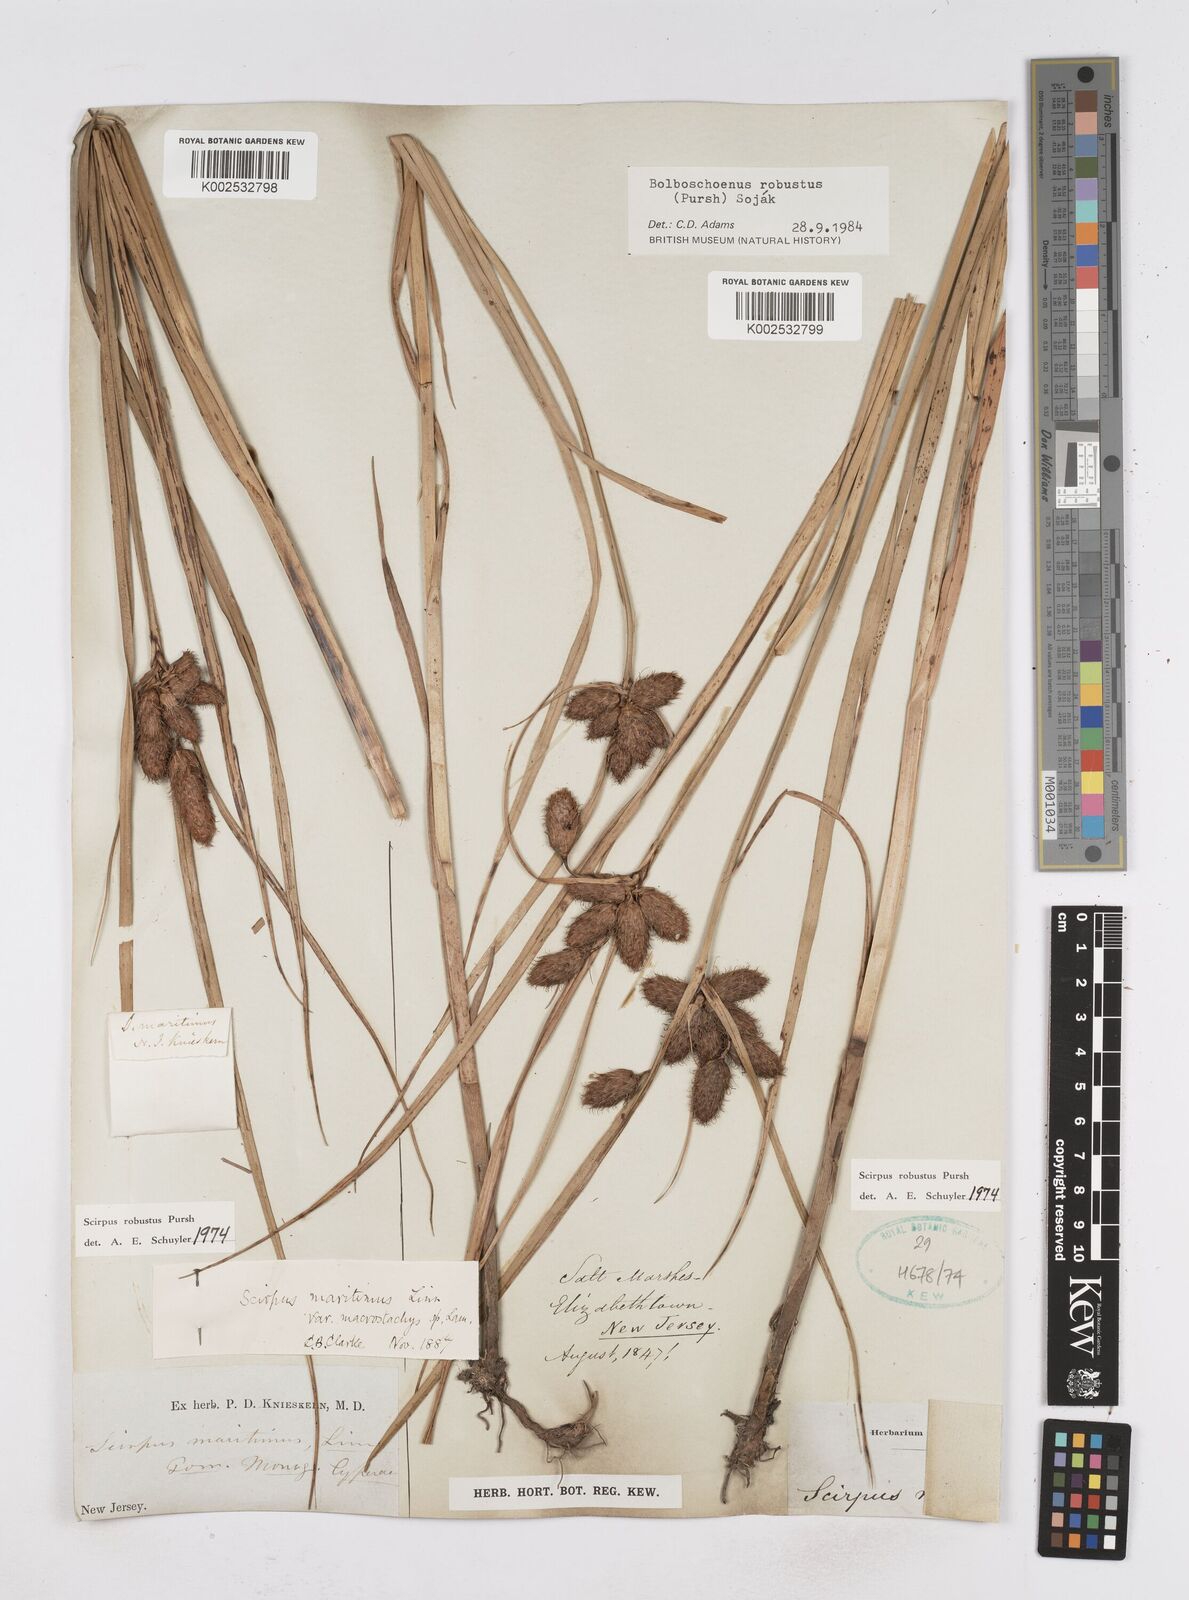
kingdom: Plantae
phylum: Tracheophyta
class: Liliopsida
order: Poales
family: Cyperaceae
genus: Bolboschoenus
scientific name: Bolboschoenus robustus
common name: Seacoast bulrush
